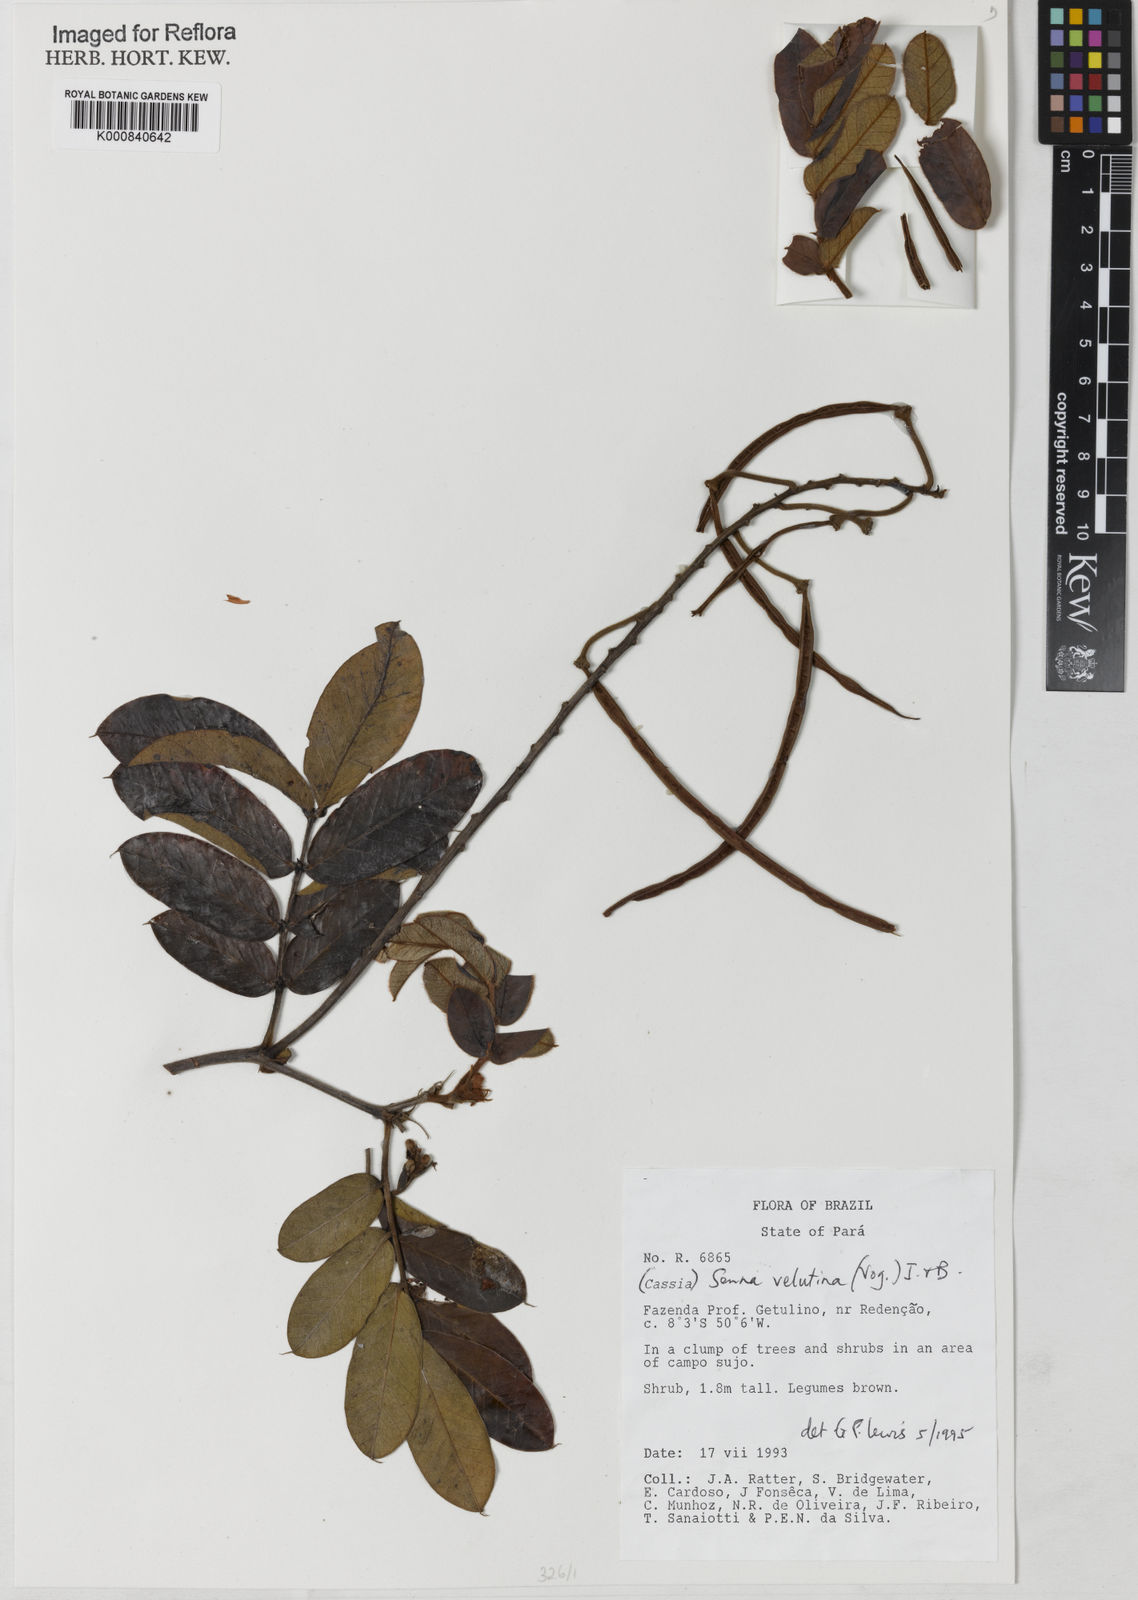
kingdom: Plantae
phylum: Tracheophyta
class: Magnoliopsida
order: Fabales
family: Fabaceae
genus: Senna
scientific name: Senna velutina
